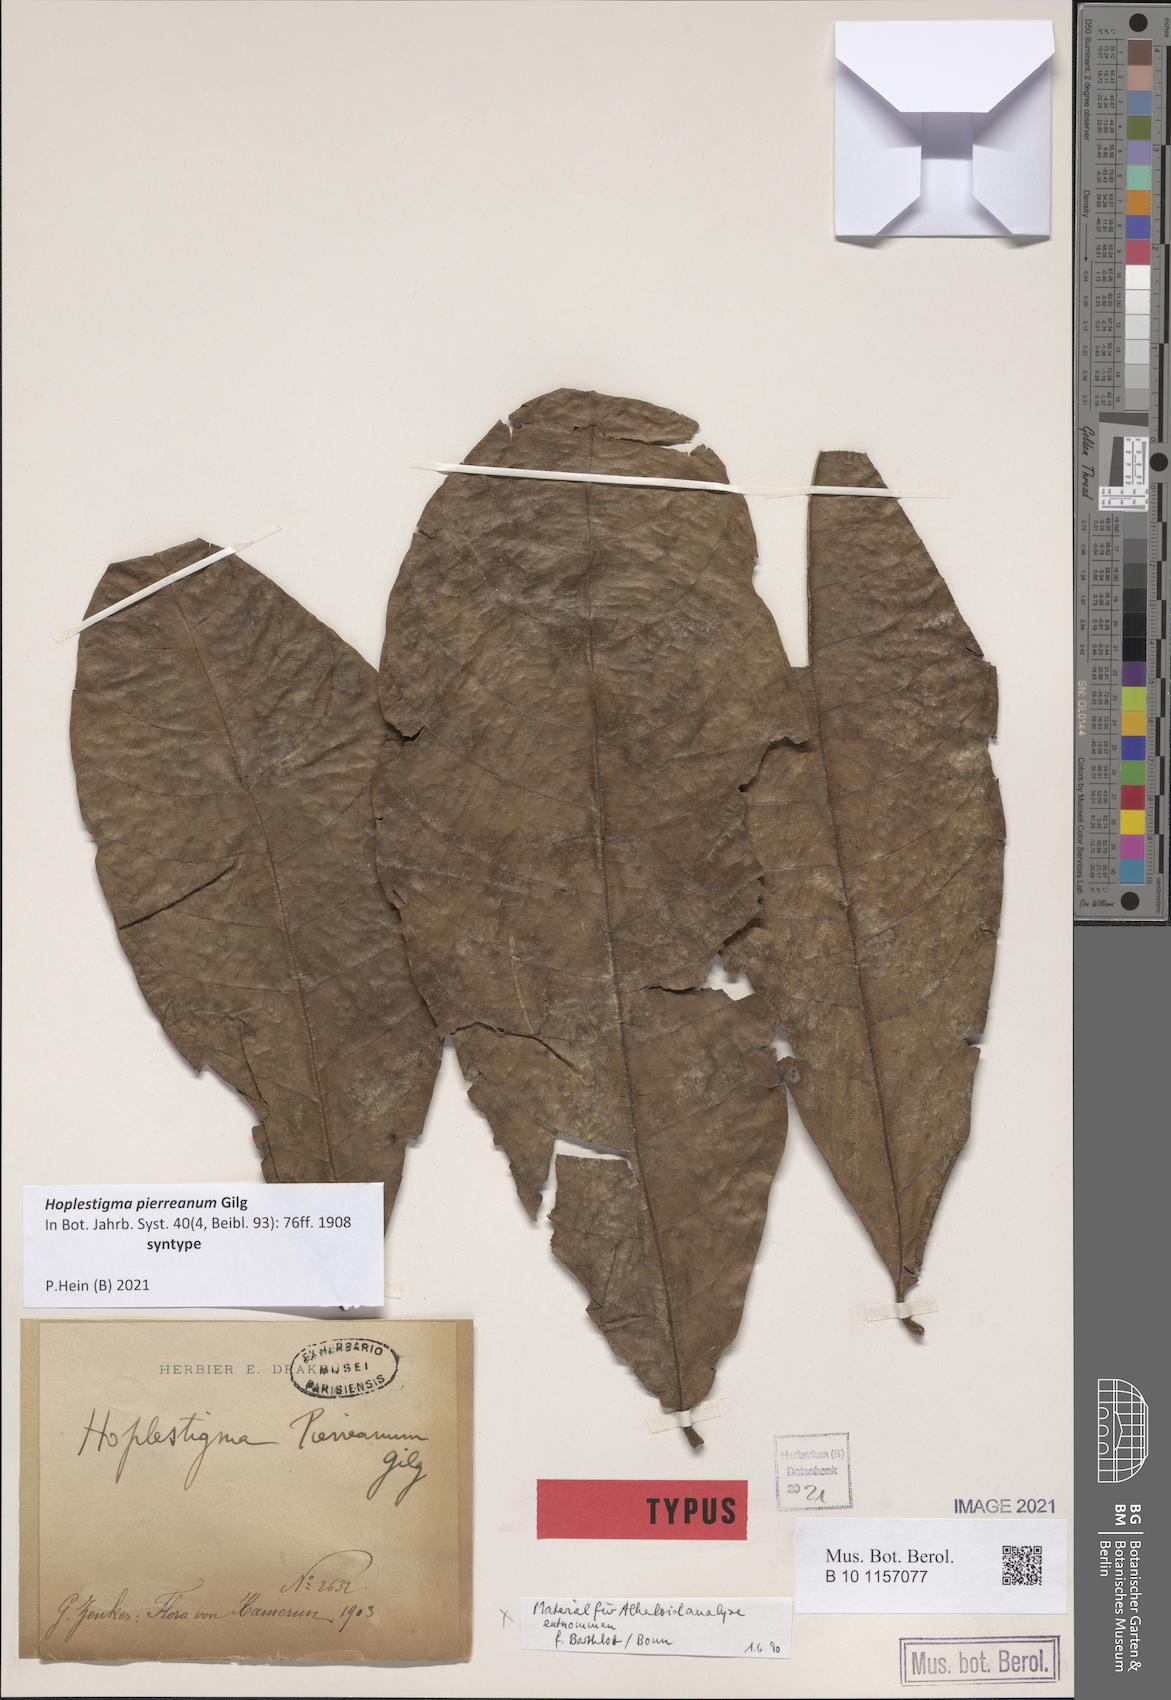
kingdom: Plantae
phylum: Tracheophyta
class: Magnoliopsida
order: Boraginales
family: Hoplestigmataceae
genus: Hoplestigma
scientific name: Hoplestigma pierreanum
